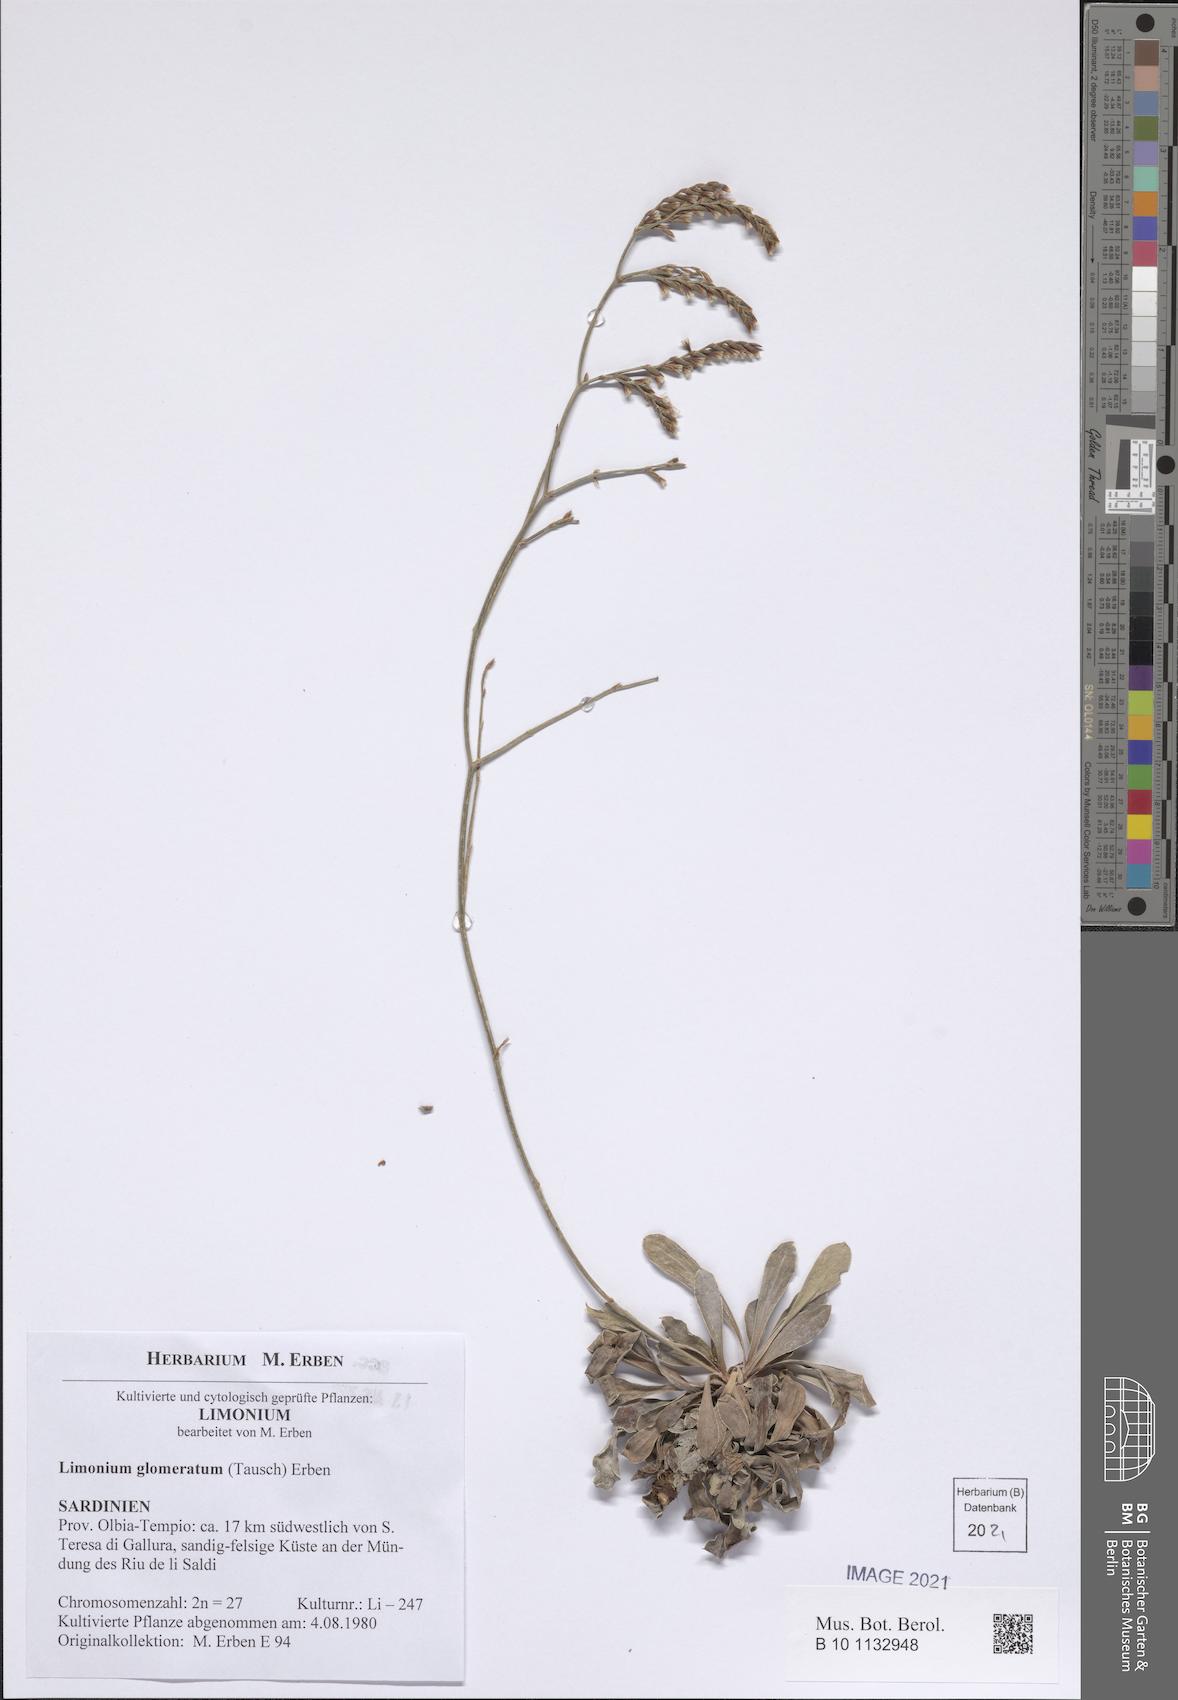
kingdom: Plantae
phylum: Tracheophyta
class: Magnoliopsida
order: Caryophyllales
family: Plumbaginaceae
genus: Limonium
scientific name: Limonium glomeratum
